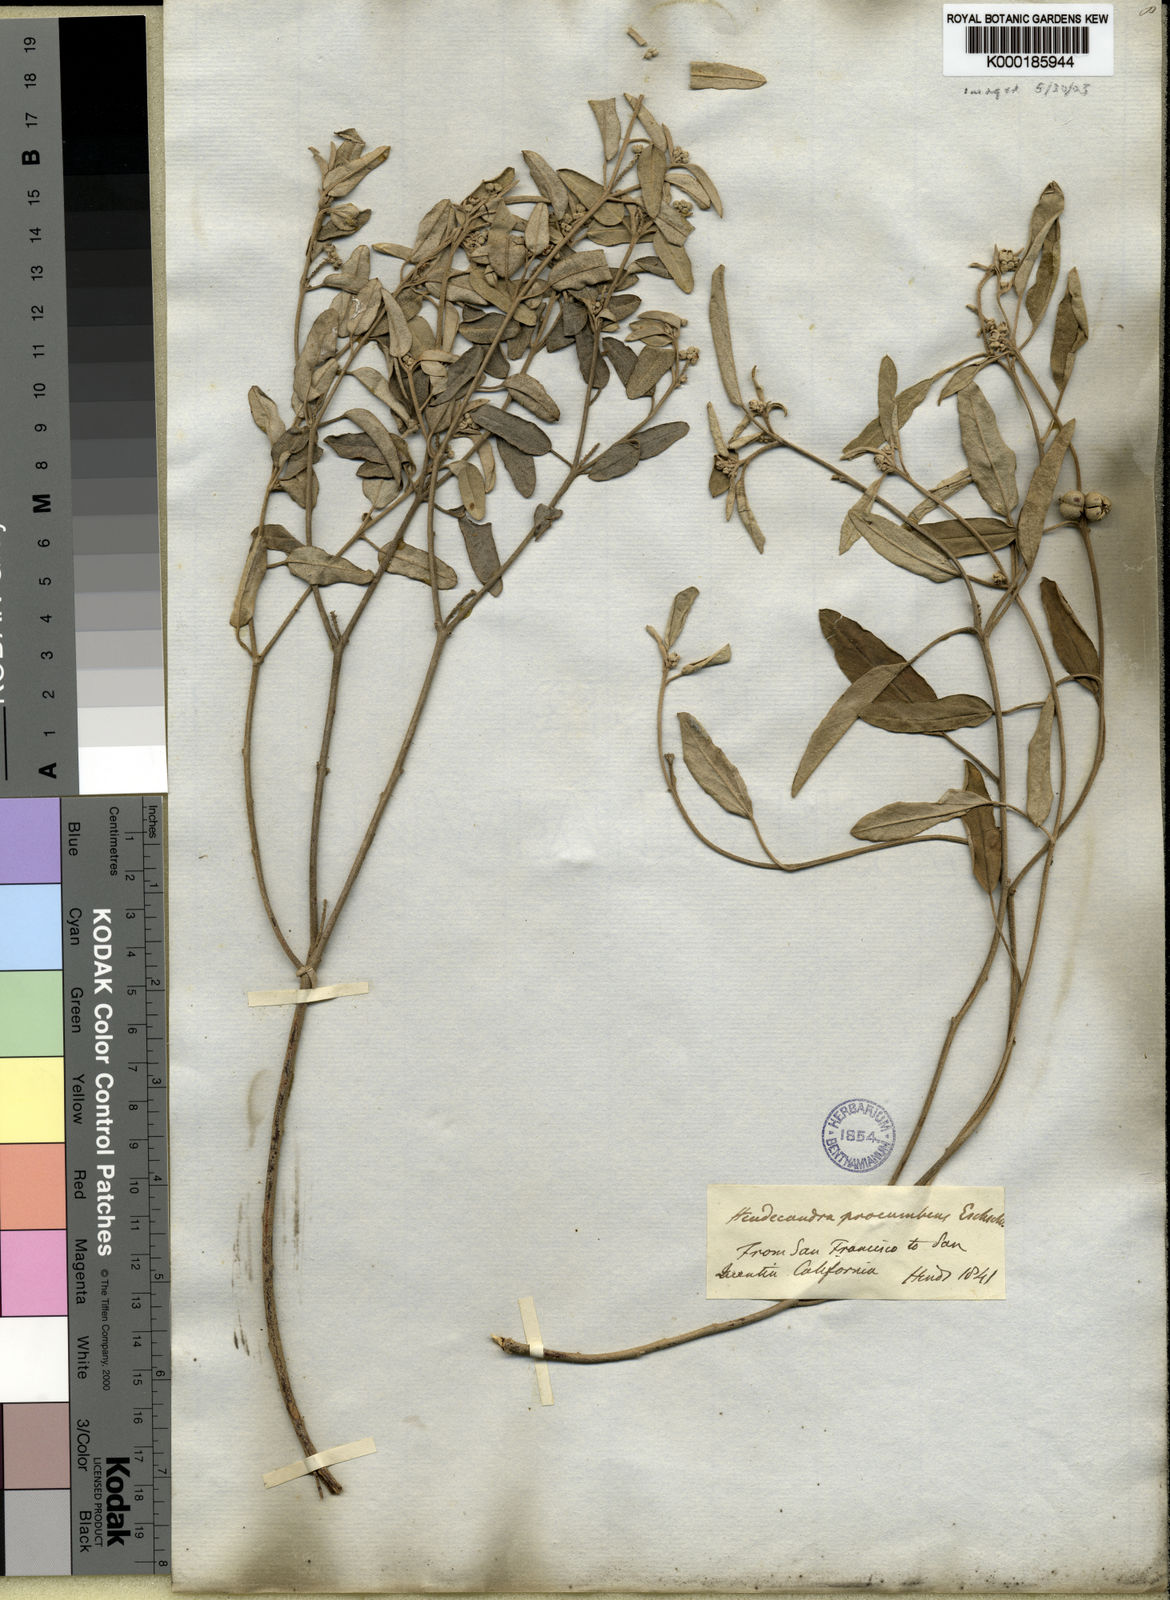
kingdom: Plantae
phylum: Tracheophyta
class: Magnoliopsida
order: Malpighiales
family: Euphorbiaceae
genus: Croton
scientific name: Croton
